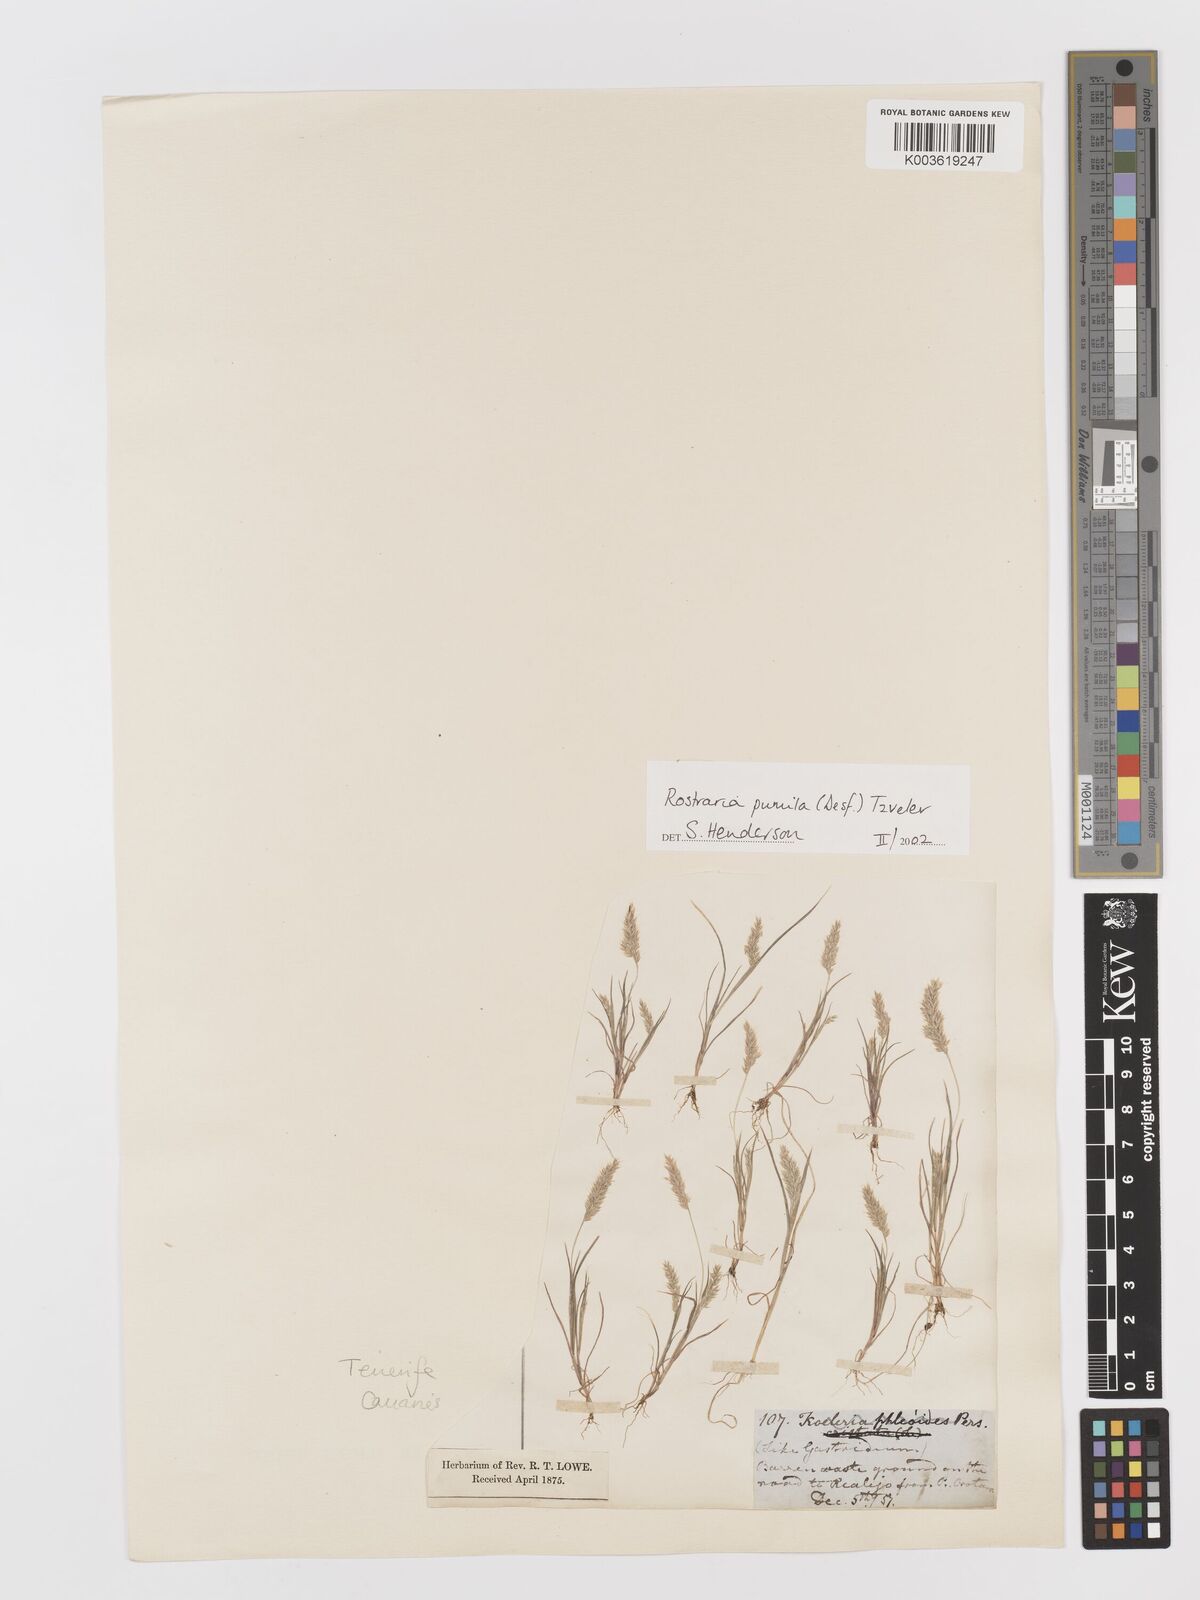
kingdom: Plantae
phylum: Tracheophyta
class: Liliopsida
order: Poales
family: Poaceae
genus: Rostraria
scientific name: Rostraria pumila
